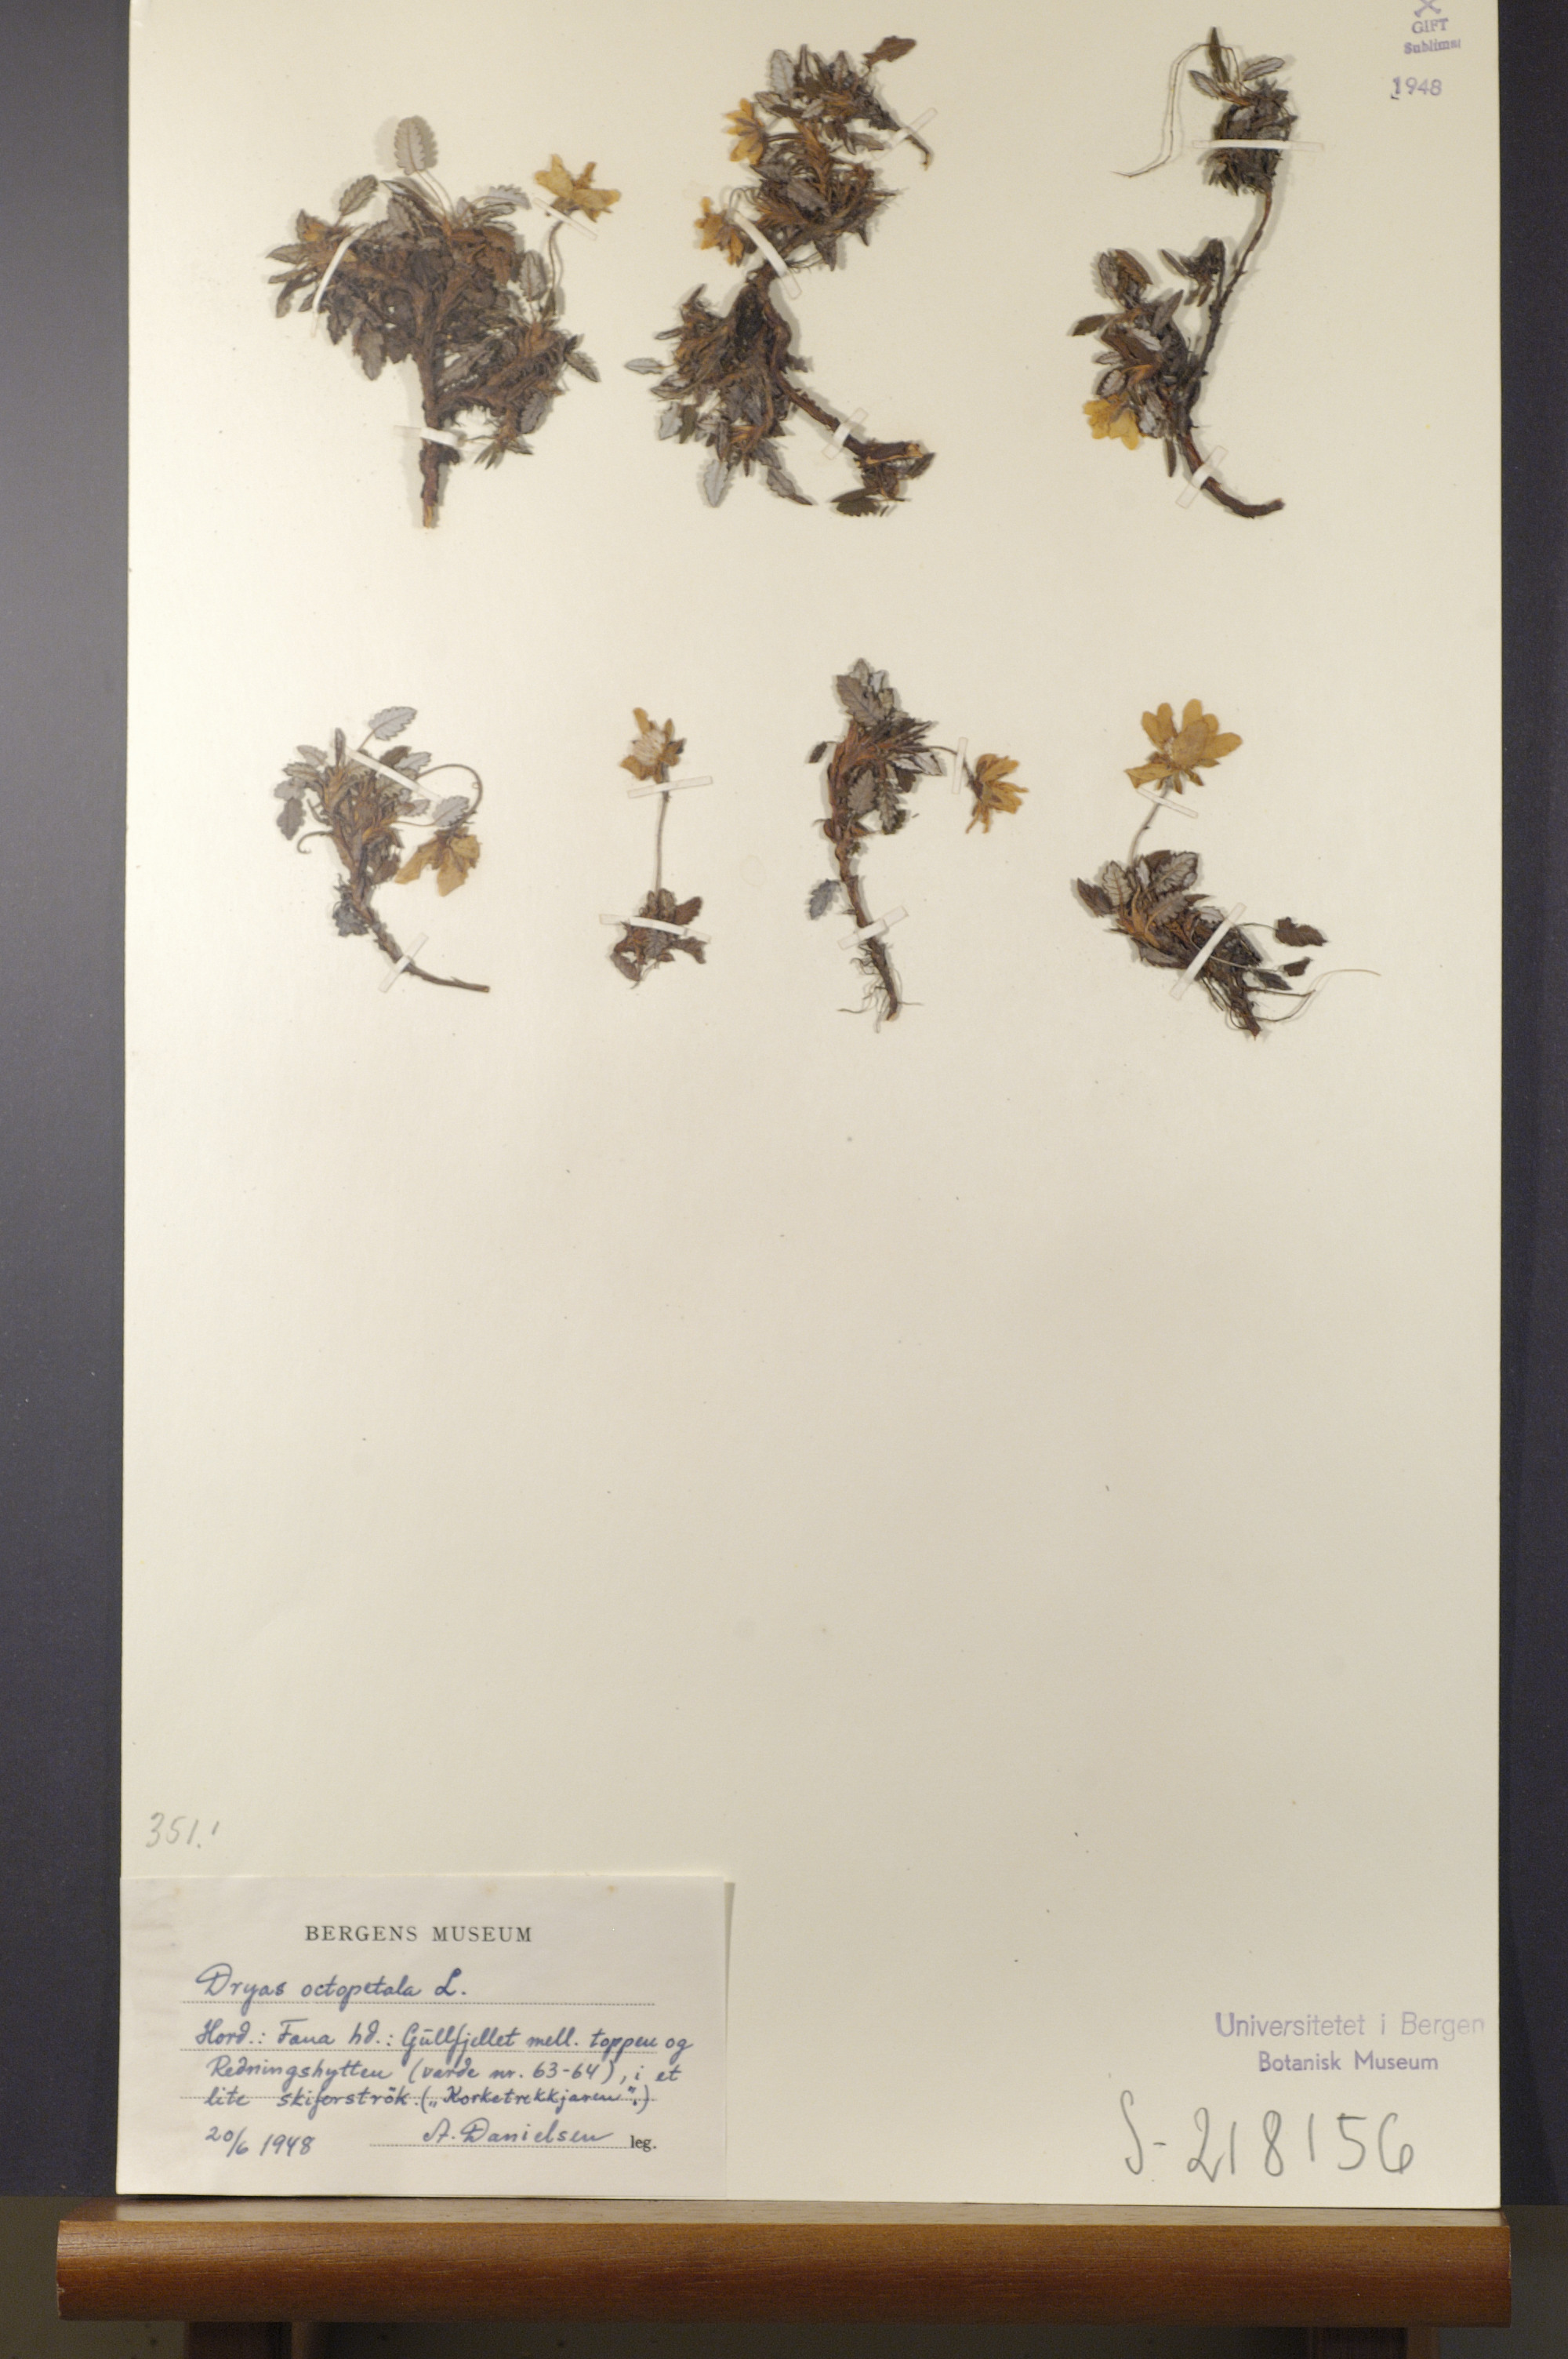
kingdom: Plantae
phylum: Tracheophyta
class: Magnoliopsida
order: Rosales
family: Rosaceae
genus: Dryas
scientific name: Dryas octopetala
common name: Eight-petal mountain-avens
